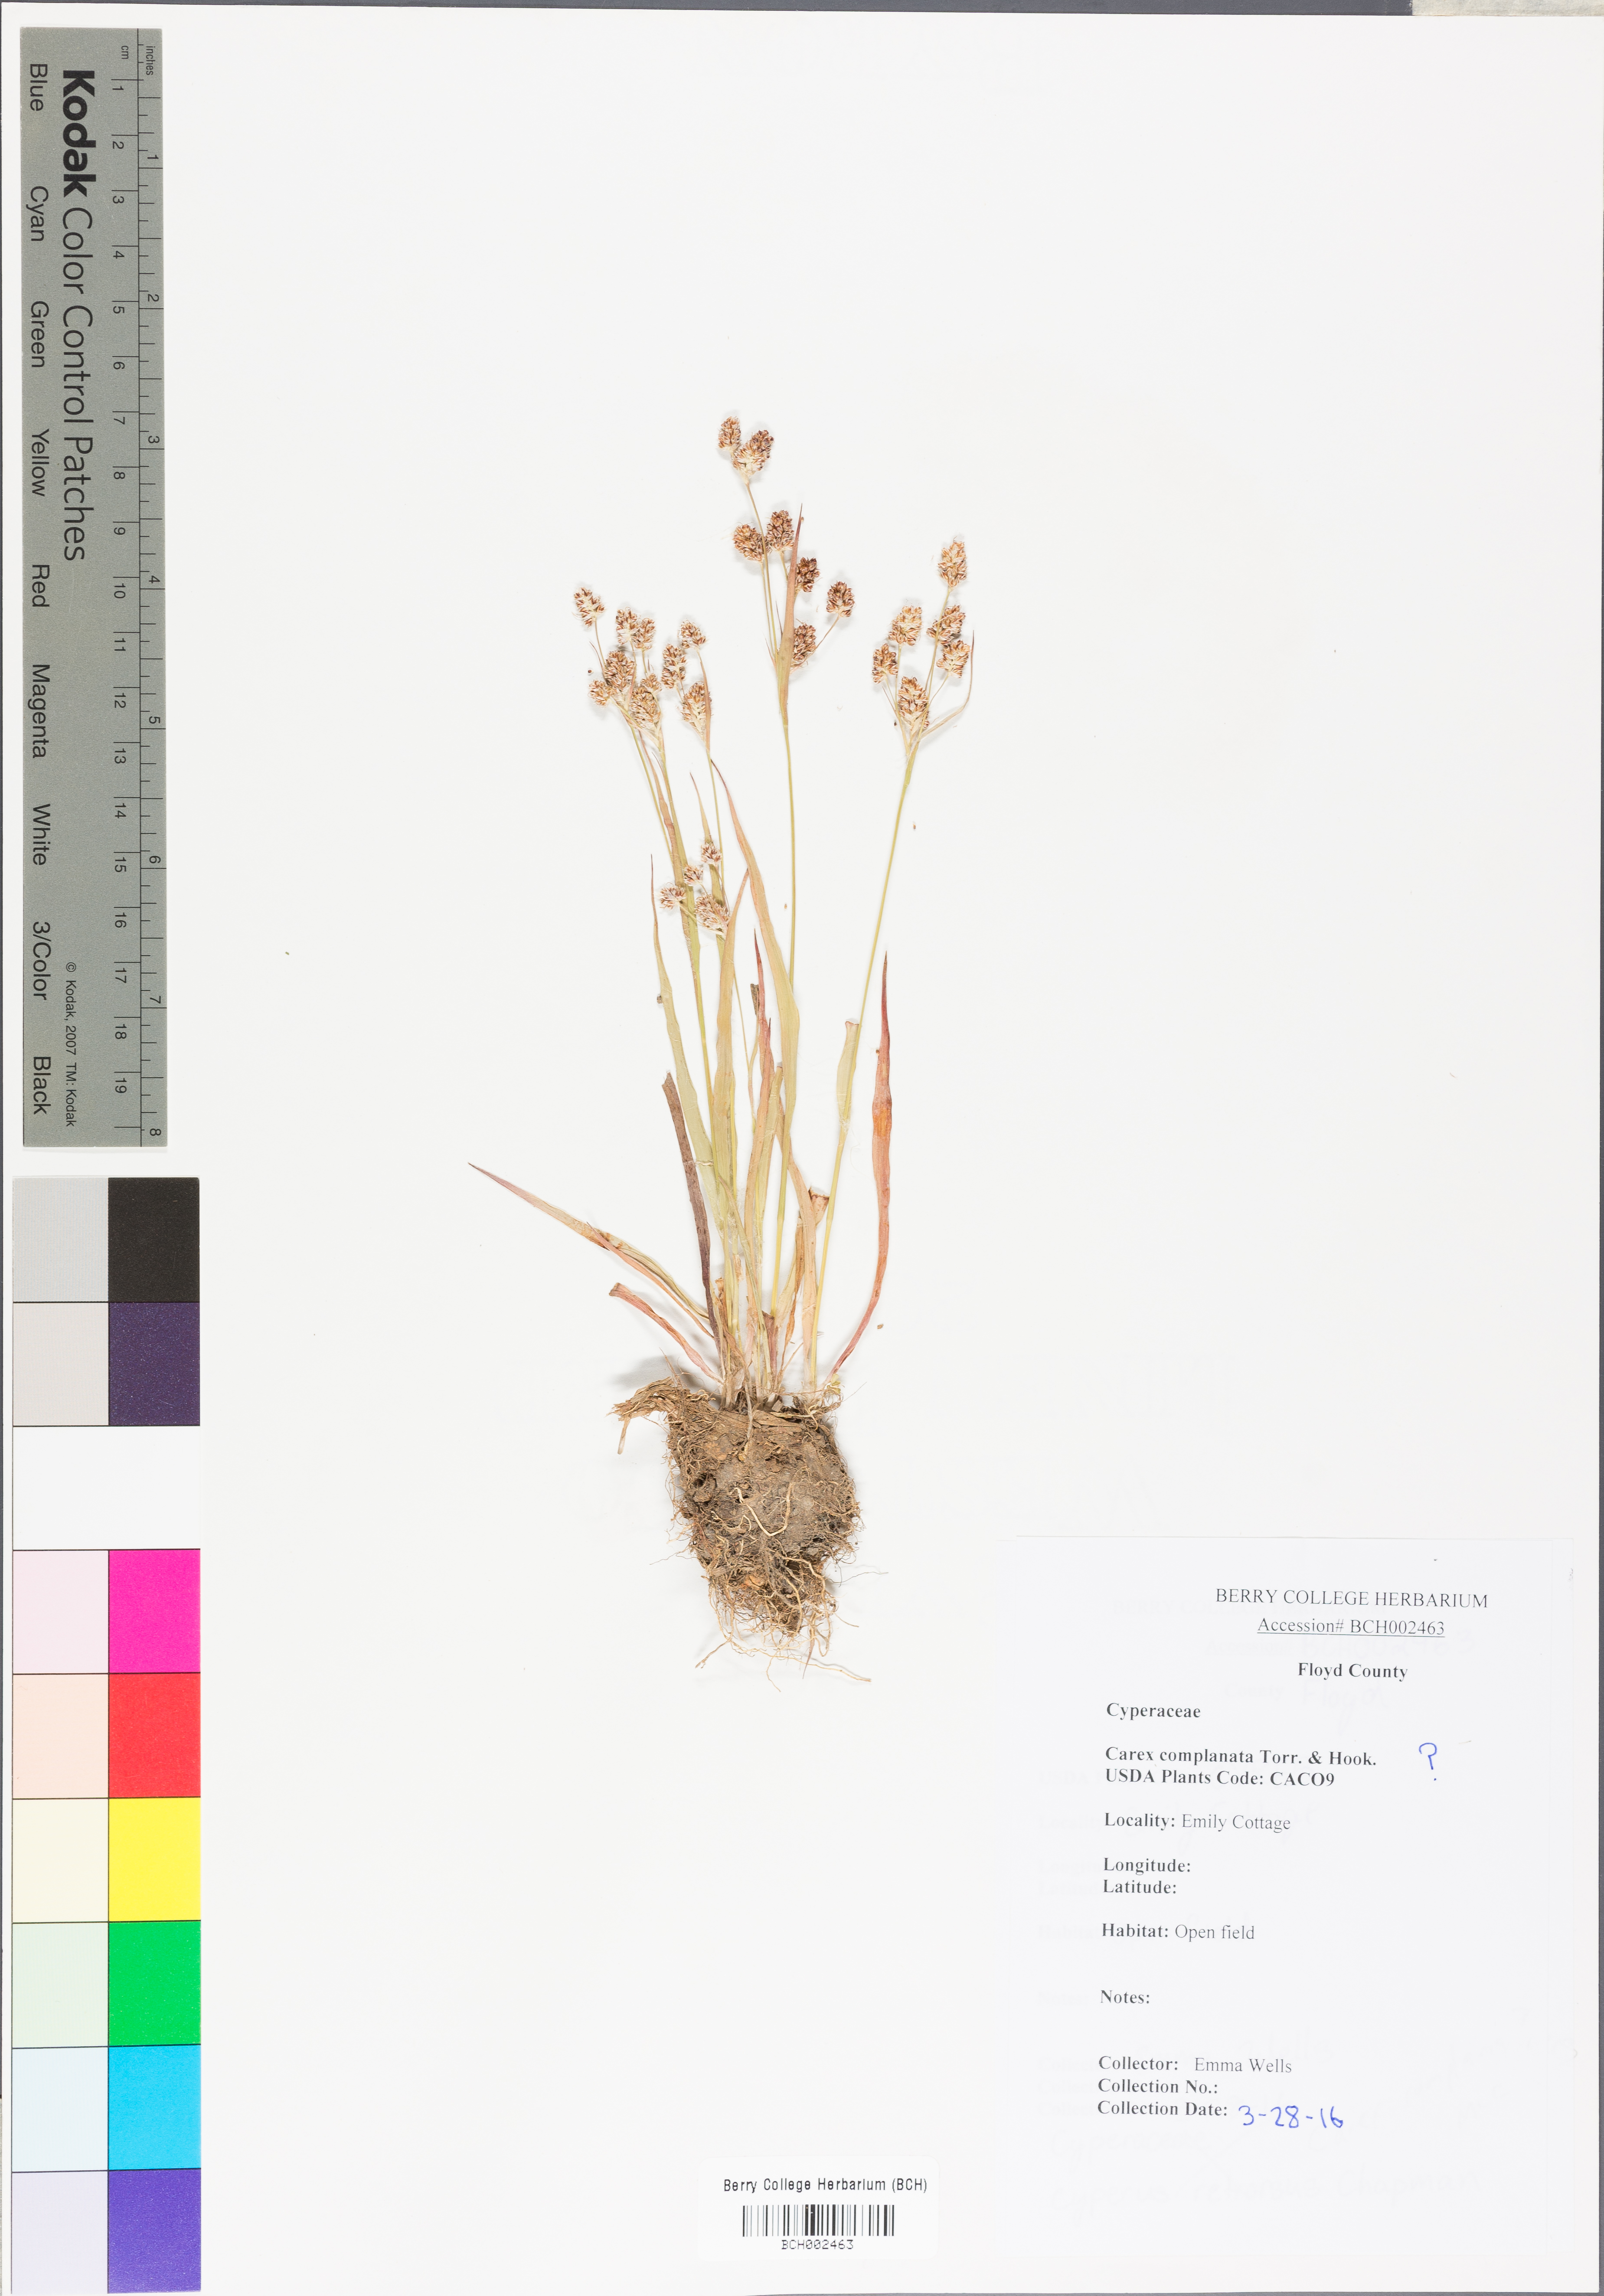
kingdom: Plantae
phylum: Tracheophyta
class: Liliopsida
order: Poales
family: Cyperaceae
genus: Carex
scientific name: Carex complanata
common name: Hirsute sedge
